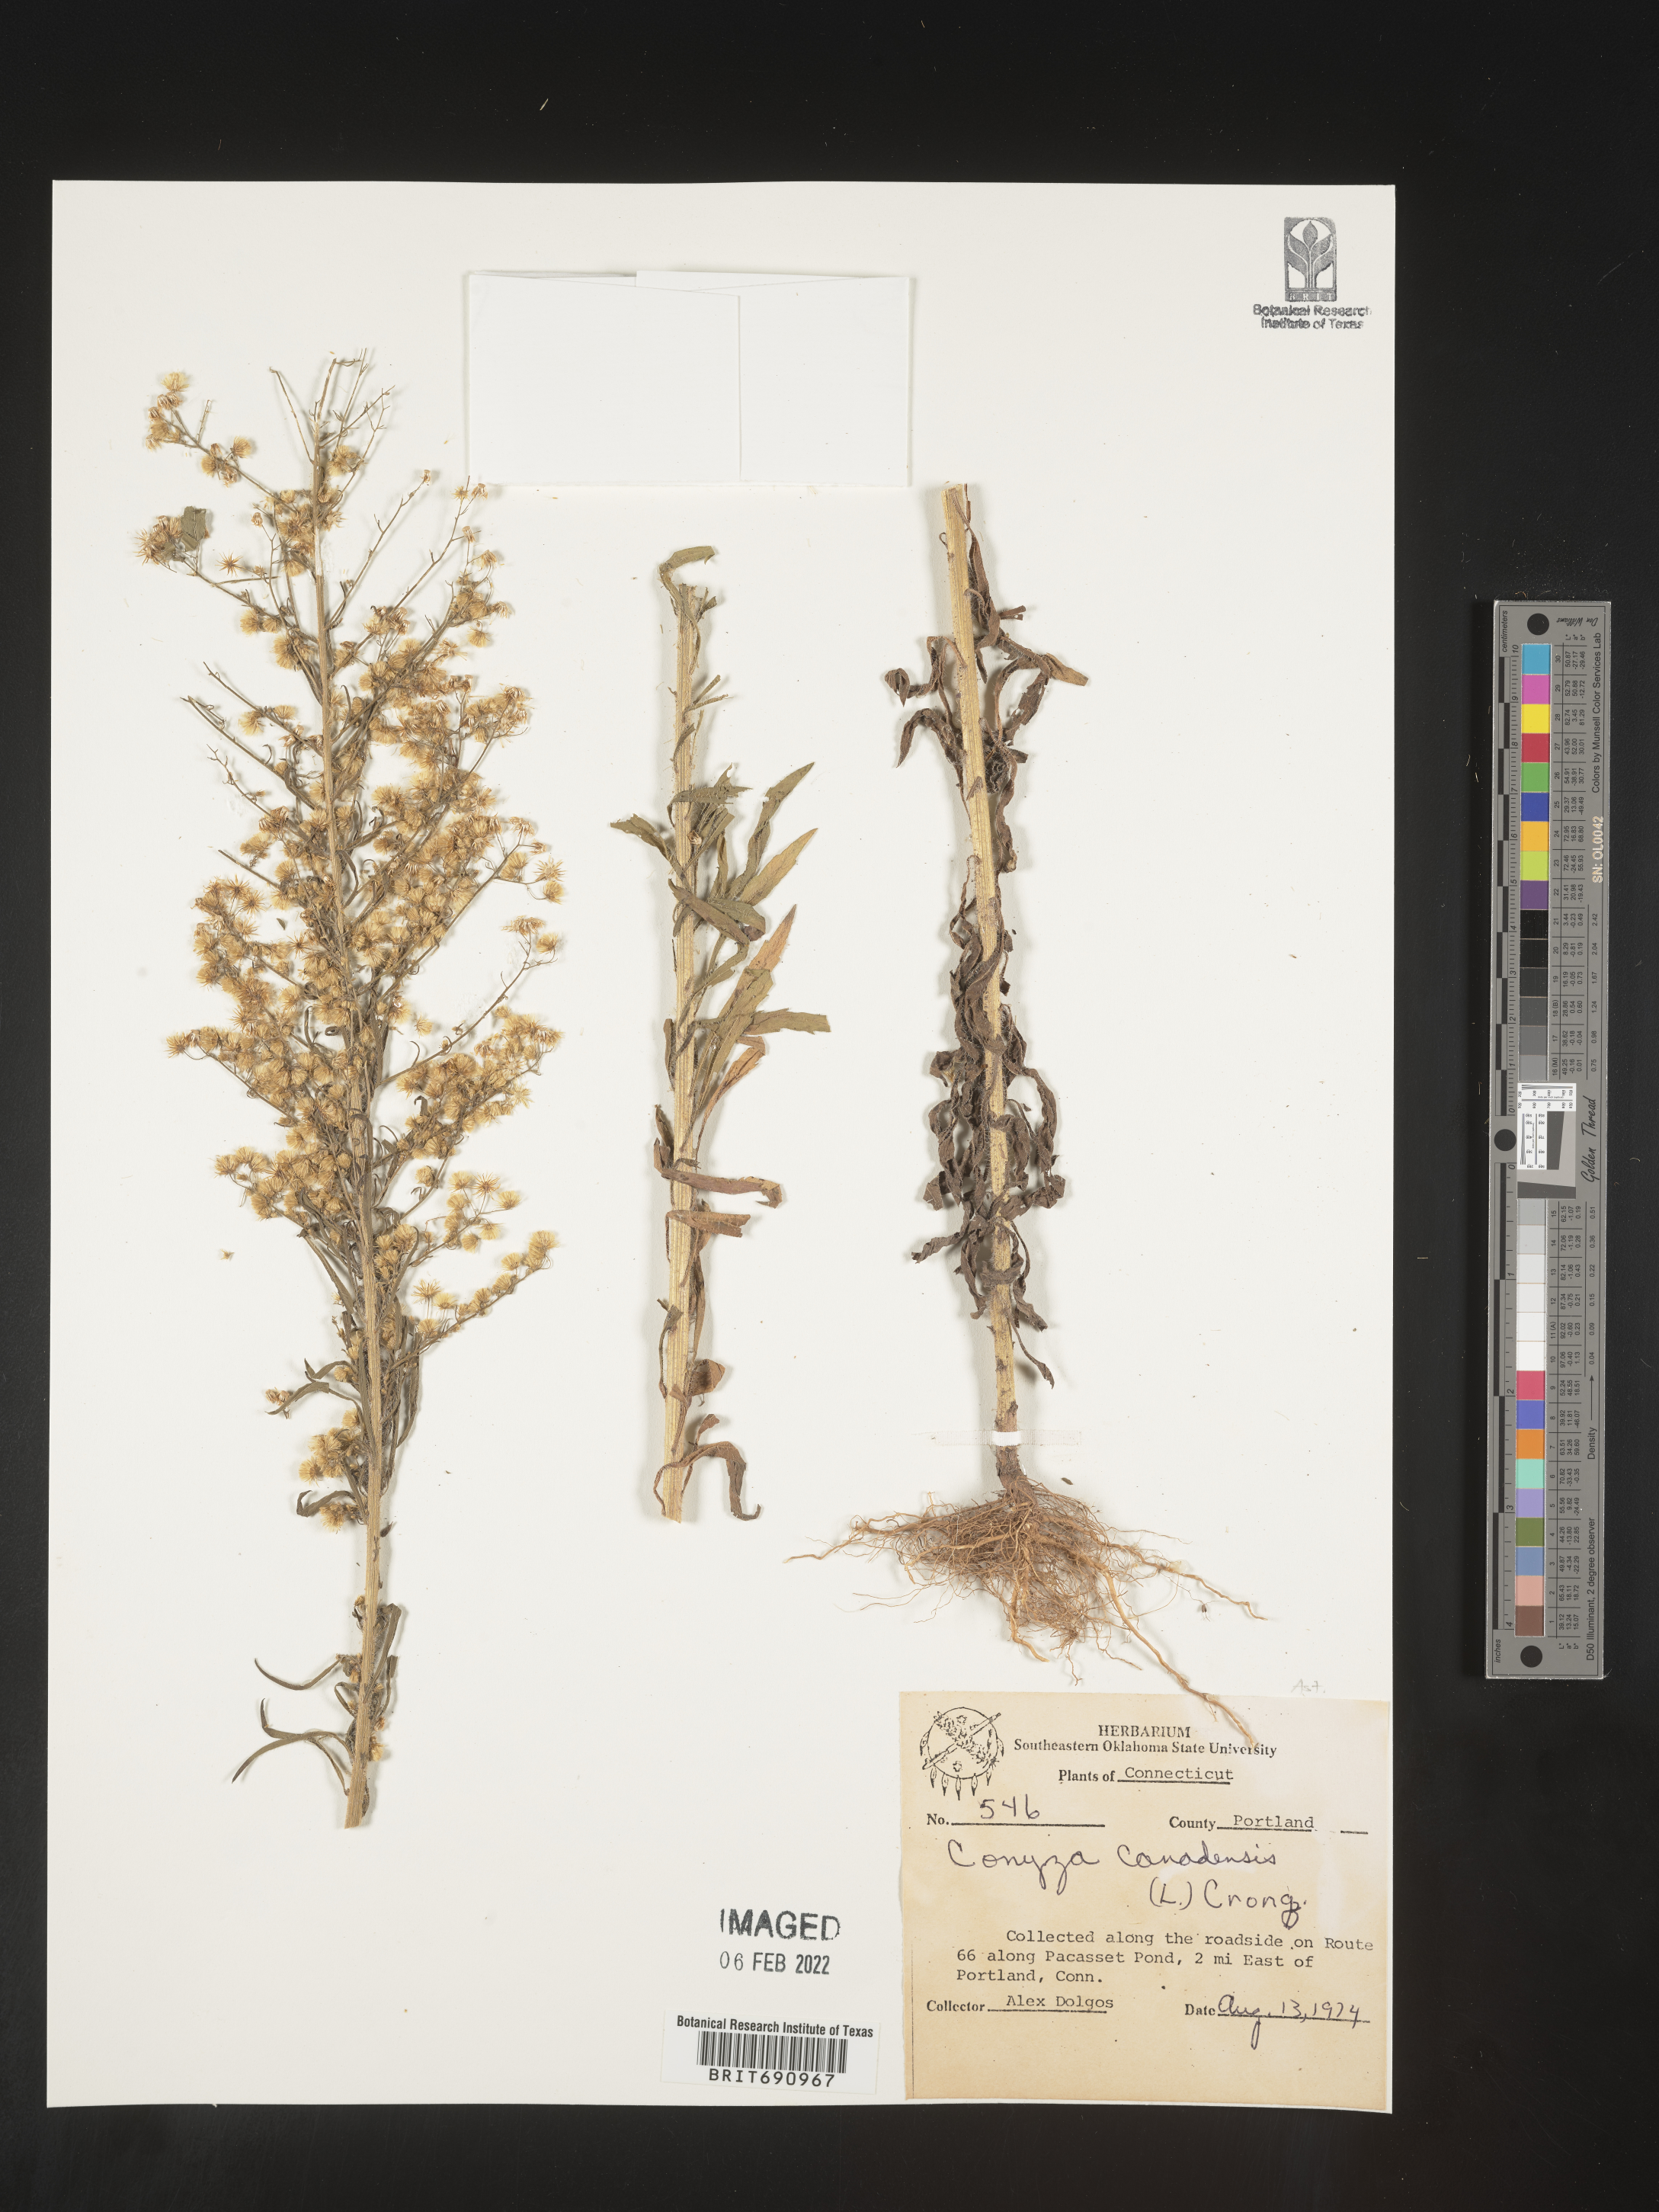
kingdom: Plantae
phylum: Tracheophyta
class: Magnoliopsida
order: Asterales
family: Asteraceae
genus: Erigeron
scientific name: Erigeron canadensis
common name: Canadian fleabane
